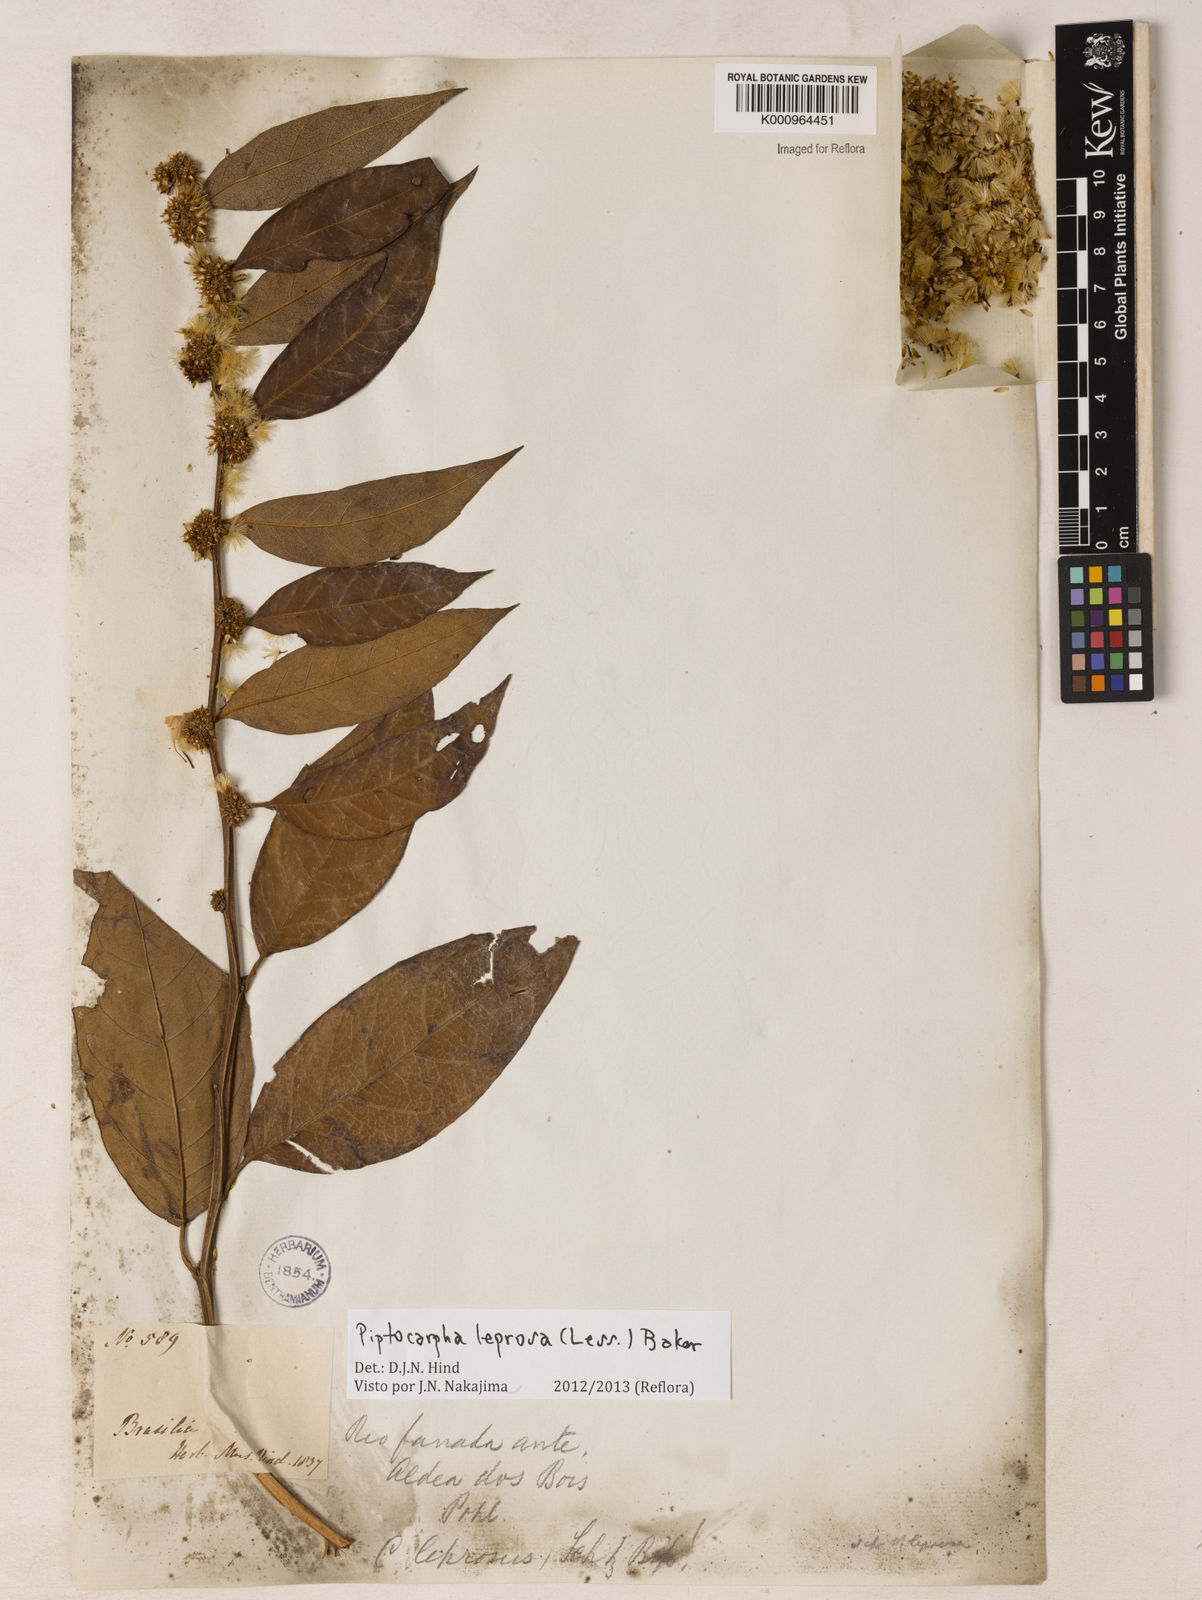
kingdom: Plantae
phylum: Tracheophyta
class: Magnoliopsida
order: Asterales
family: Asteraceae
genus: Piptocarpha
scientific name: Piptocarpha leprosa
